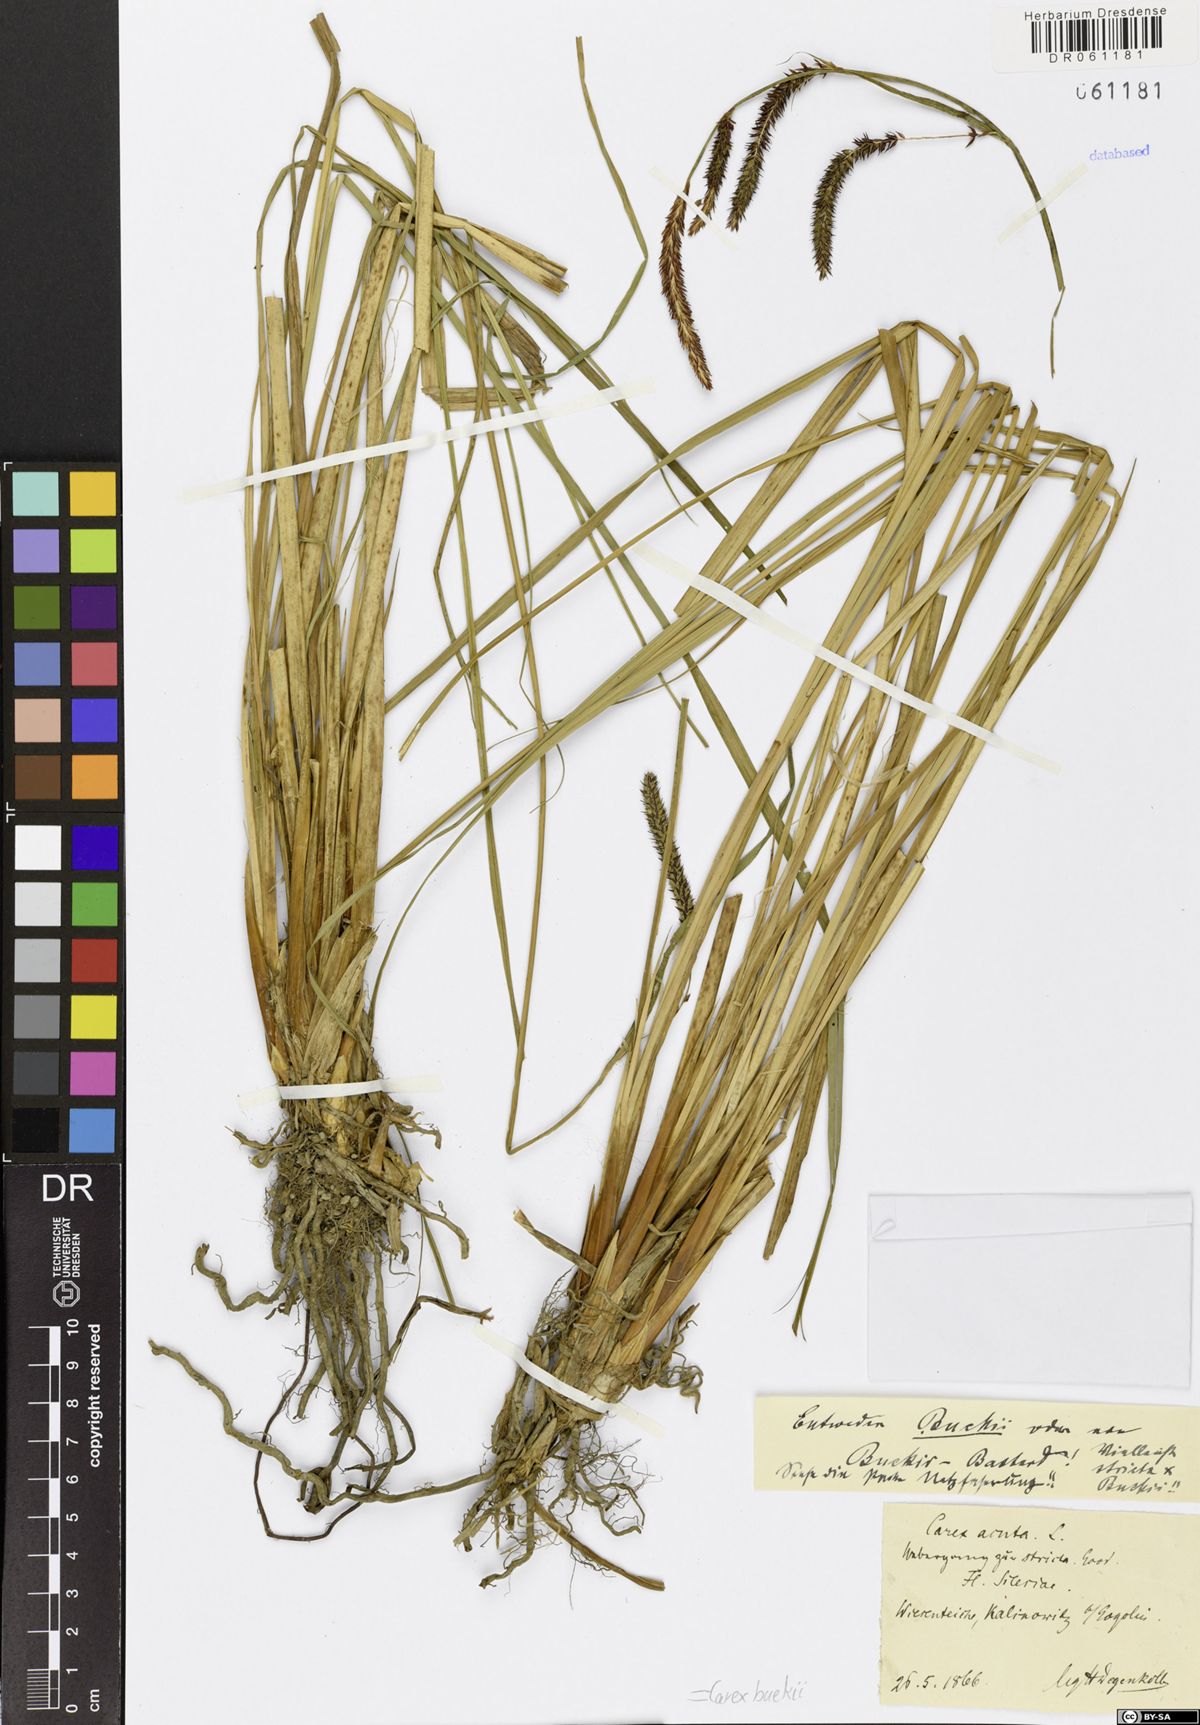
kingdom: Plantae
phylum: Tracheophyta
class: Liliopsida
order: Poales
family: Cyperaceae
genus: Carex
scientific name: Carex buekii
